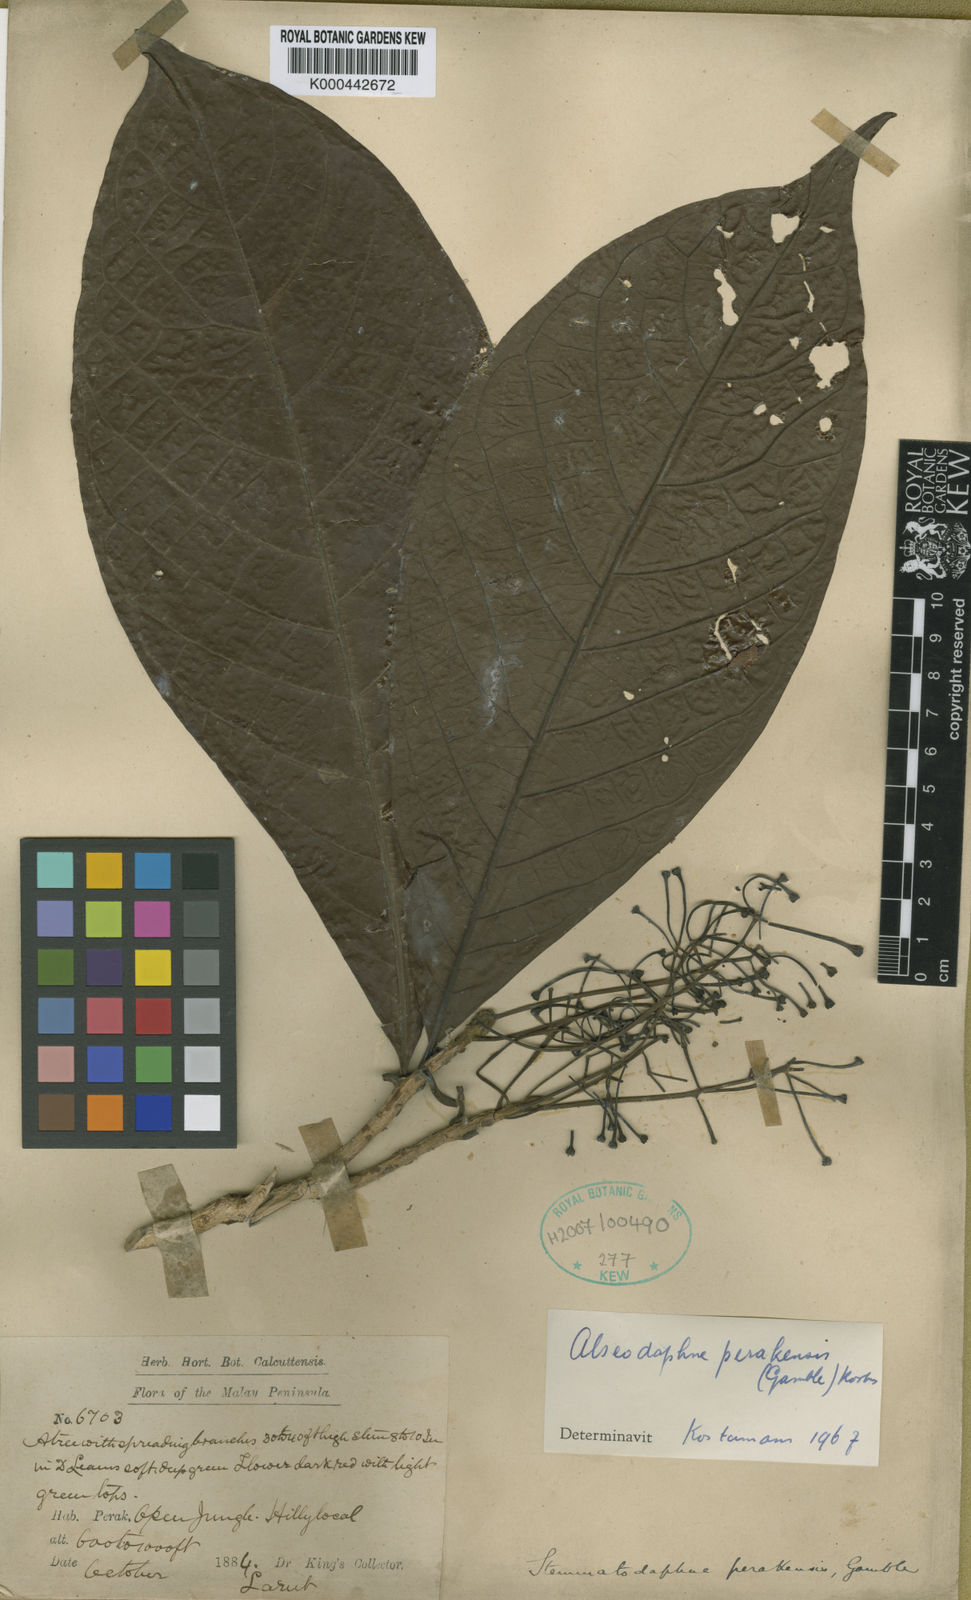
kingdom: Plantae
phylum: Tracheophyta
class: Magnoliopsida
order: Laurales
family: Lauraceae
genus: Alseodaphne
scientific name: Alseodaphne perakensis
